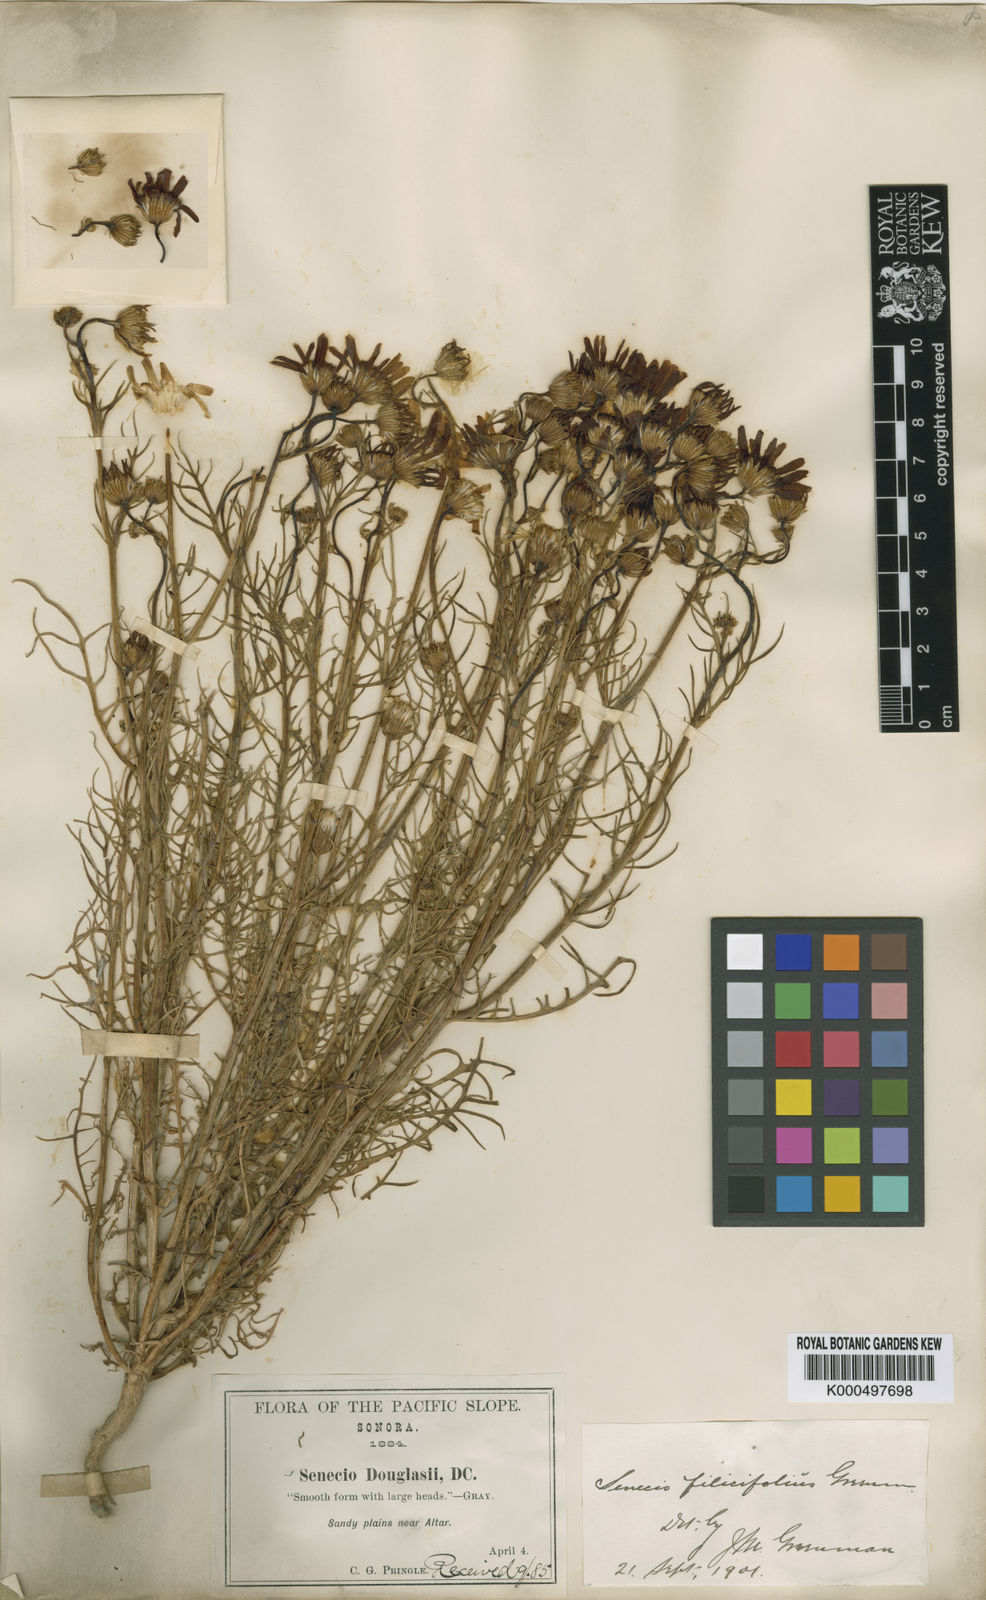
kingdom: Plantae
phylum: Tracheophyta
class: Magnoliopsida
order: Asterales
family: Asteraceae
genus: Senecio
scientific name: Senecio flaccidus
